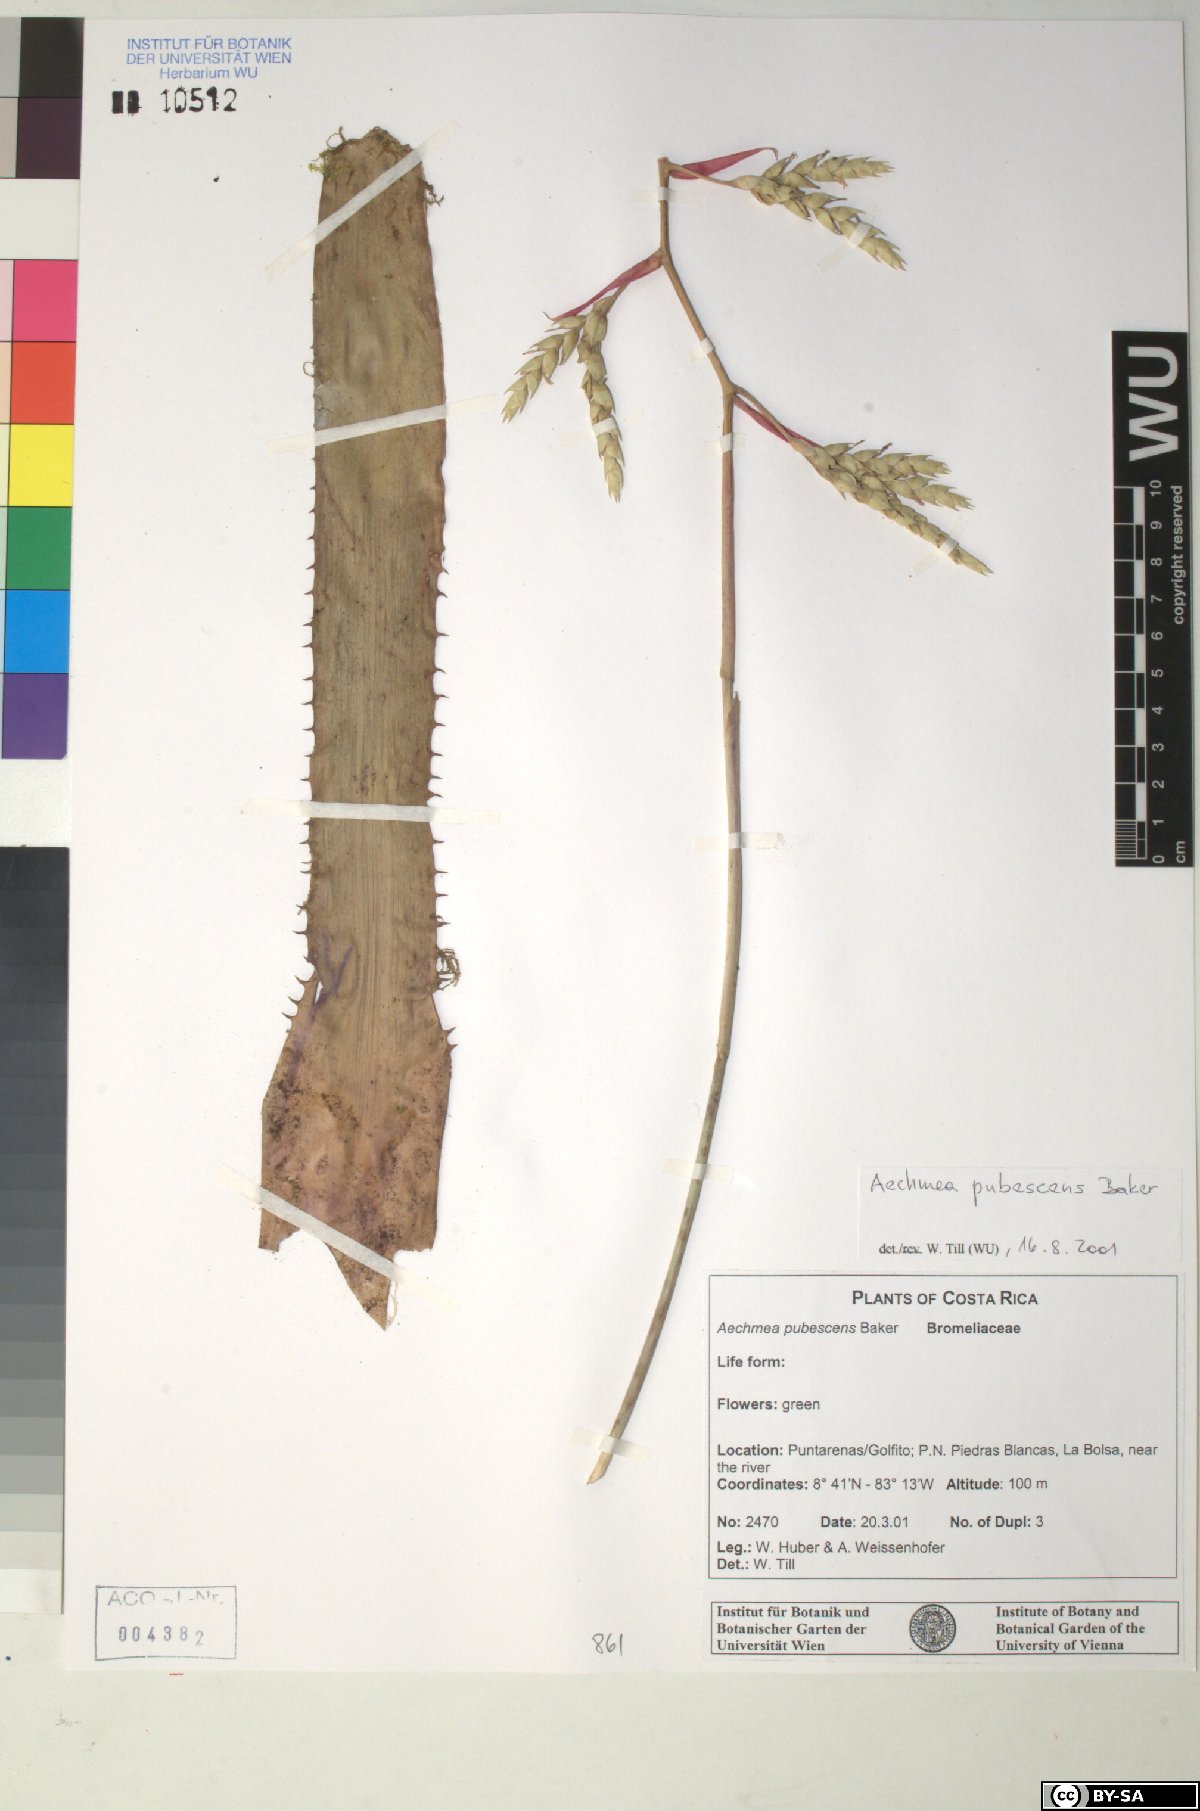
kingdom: Plantae
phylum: Tracheophyta
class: Liliopsida
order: Poales
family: Bromeliaceae
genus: Aechmea
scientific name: Aechmea pubescens
